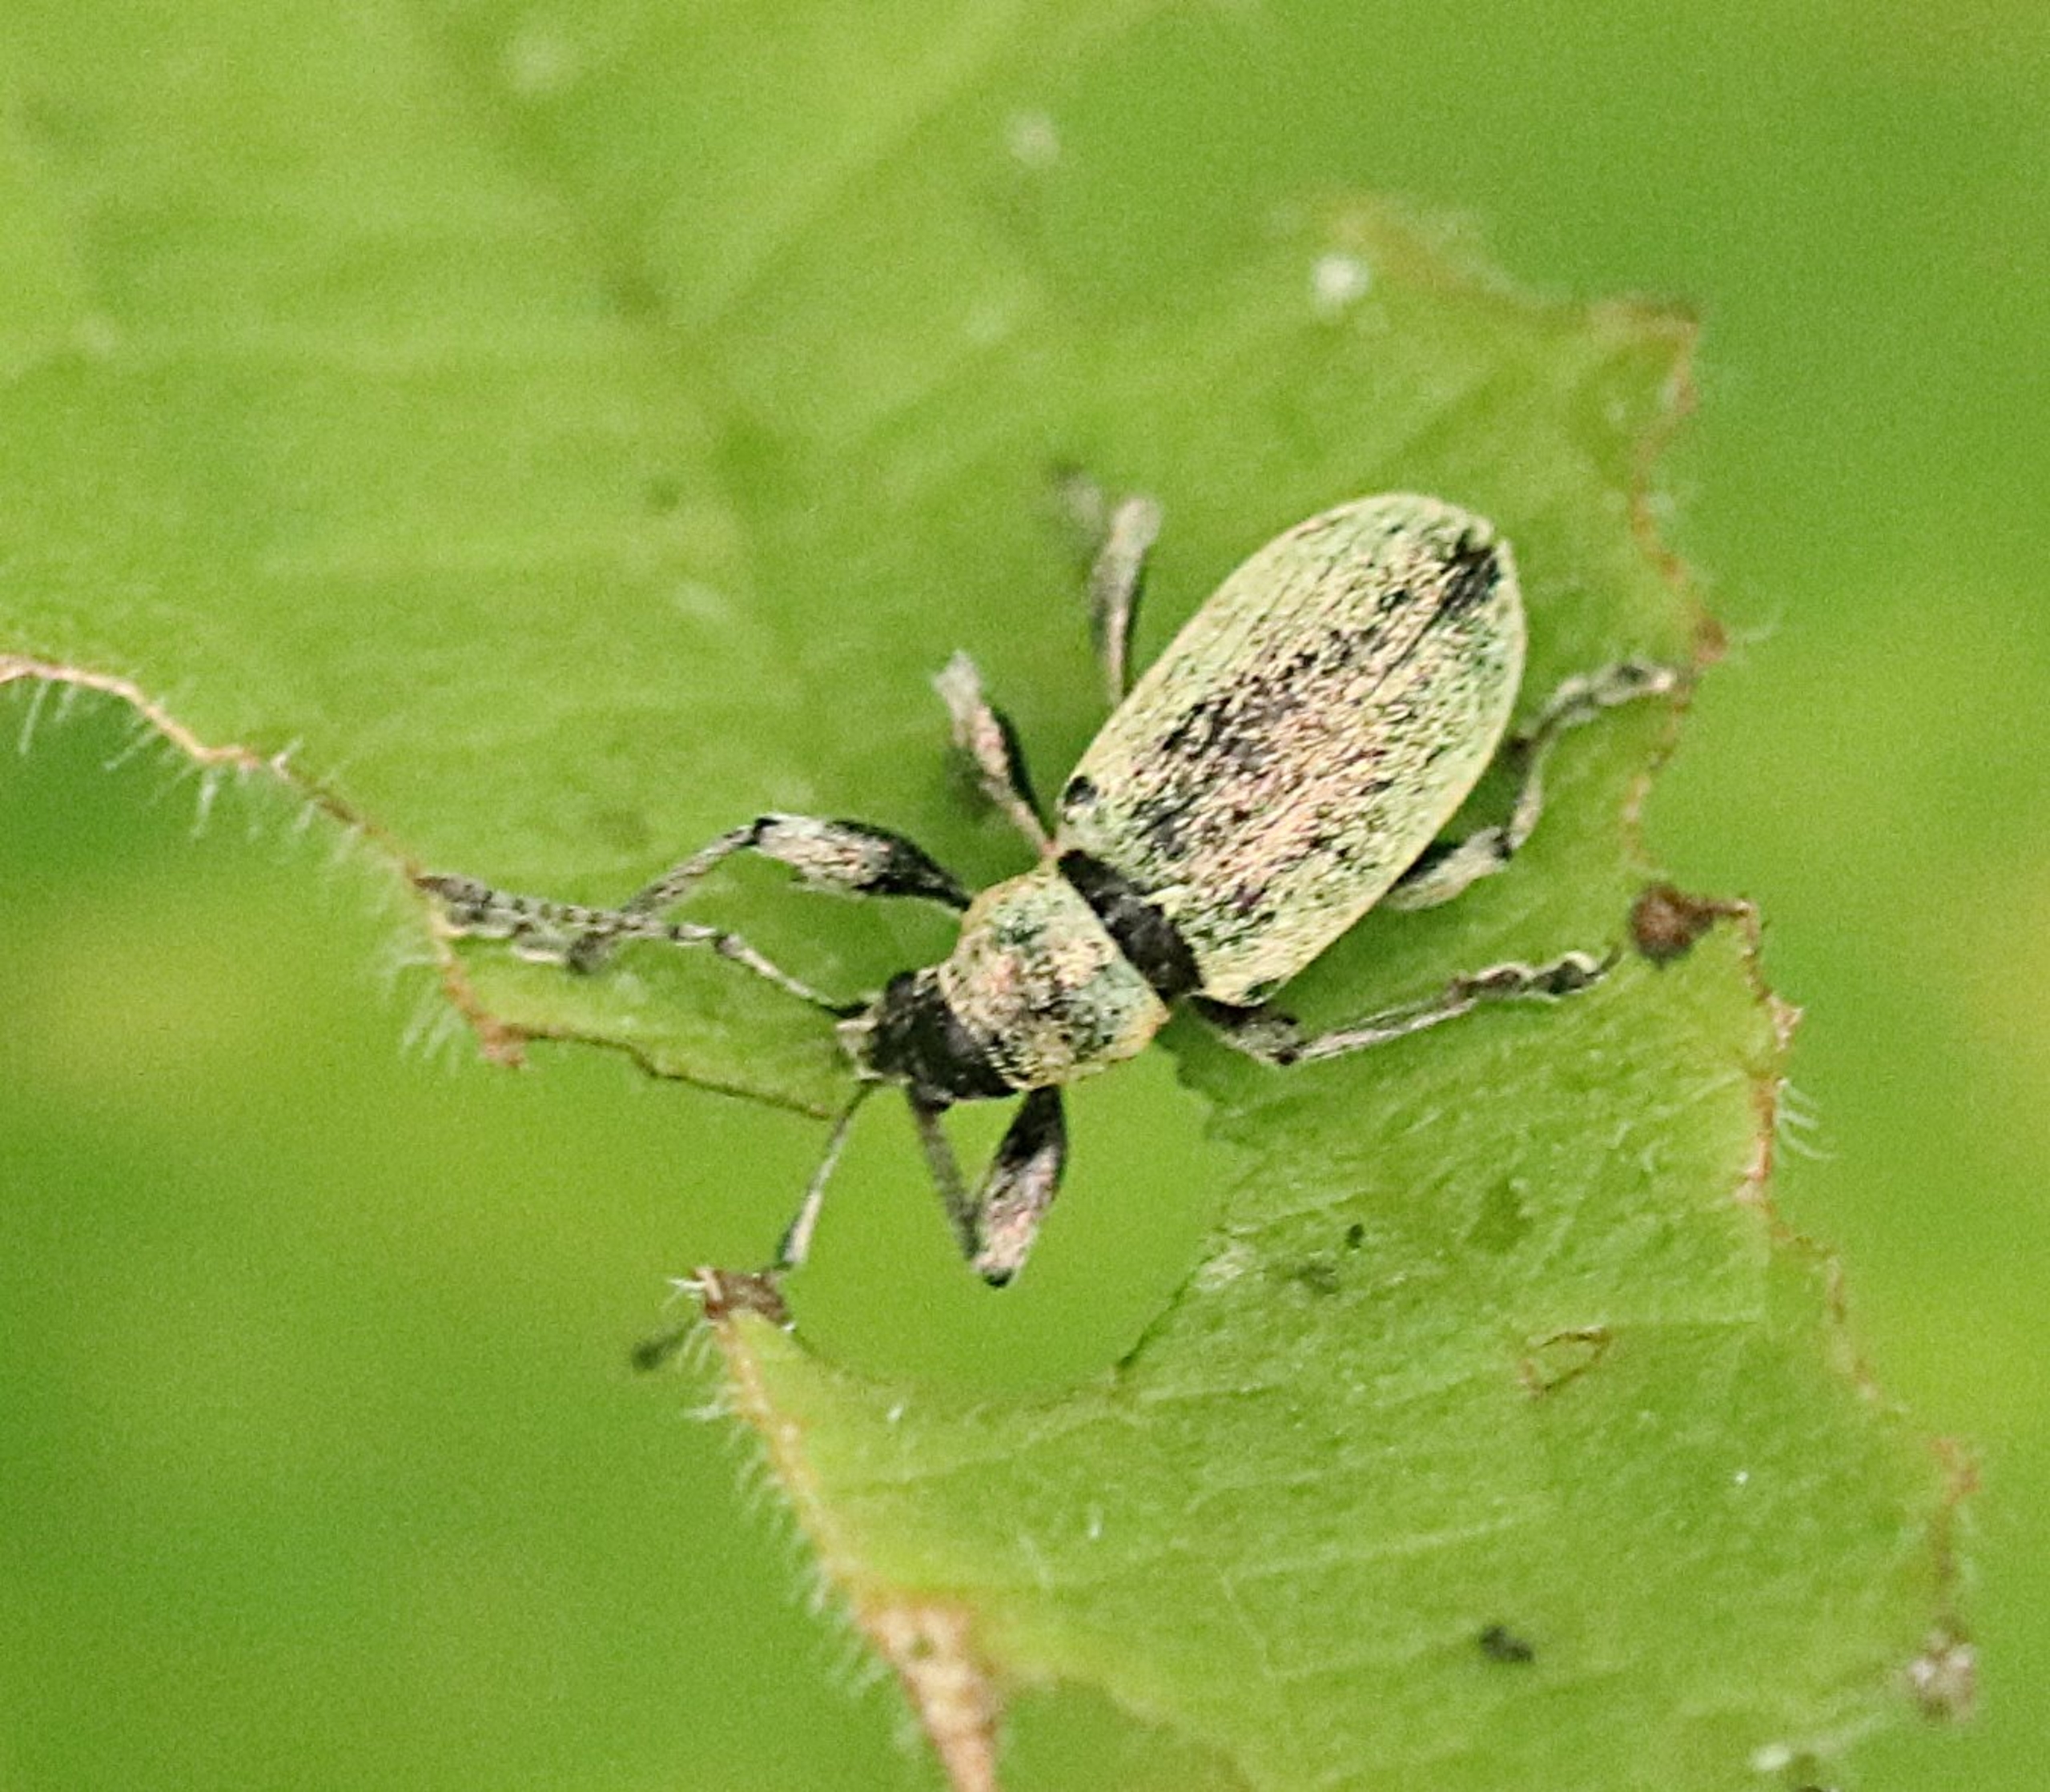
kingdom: Animalia
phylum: Arthropoda
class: Insecta
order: Coleoptera
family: Curculionidae
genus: Phyllobius
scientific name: Phyllobius pomaceus
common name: Nældesnudebille
